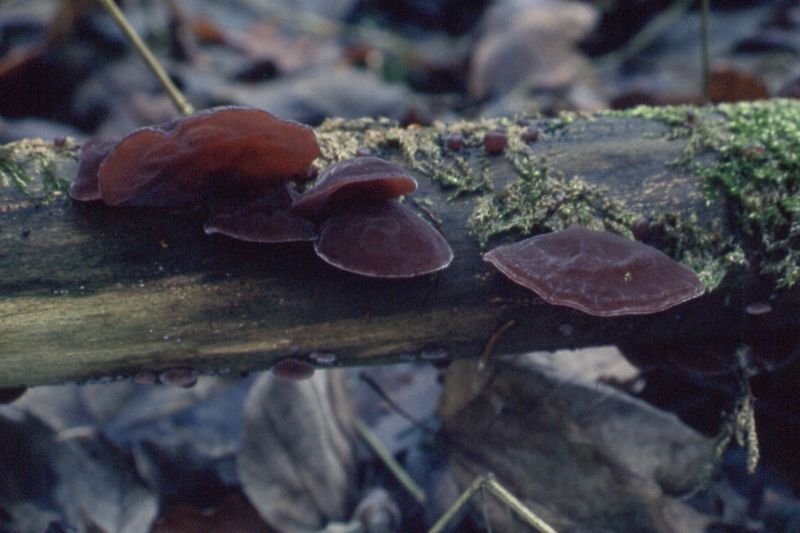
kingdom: Fungi
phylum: Basidiomycota
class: Agaricomycetes
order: Auriculariales
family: Auriculariaceae
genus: Auricularia
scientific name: Auricularia auricula-judae
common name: almindelig judasøre
